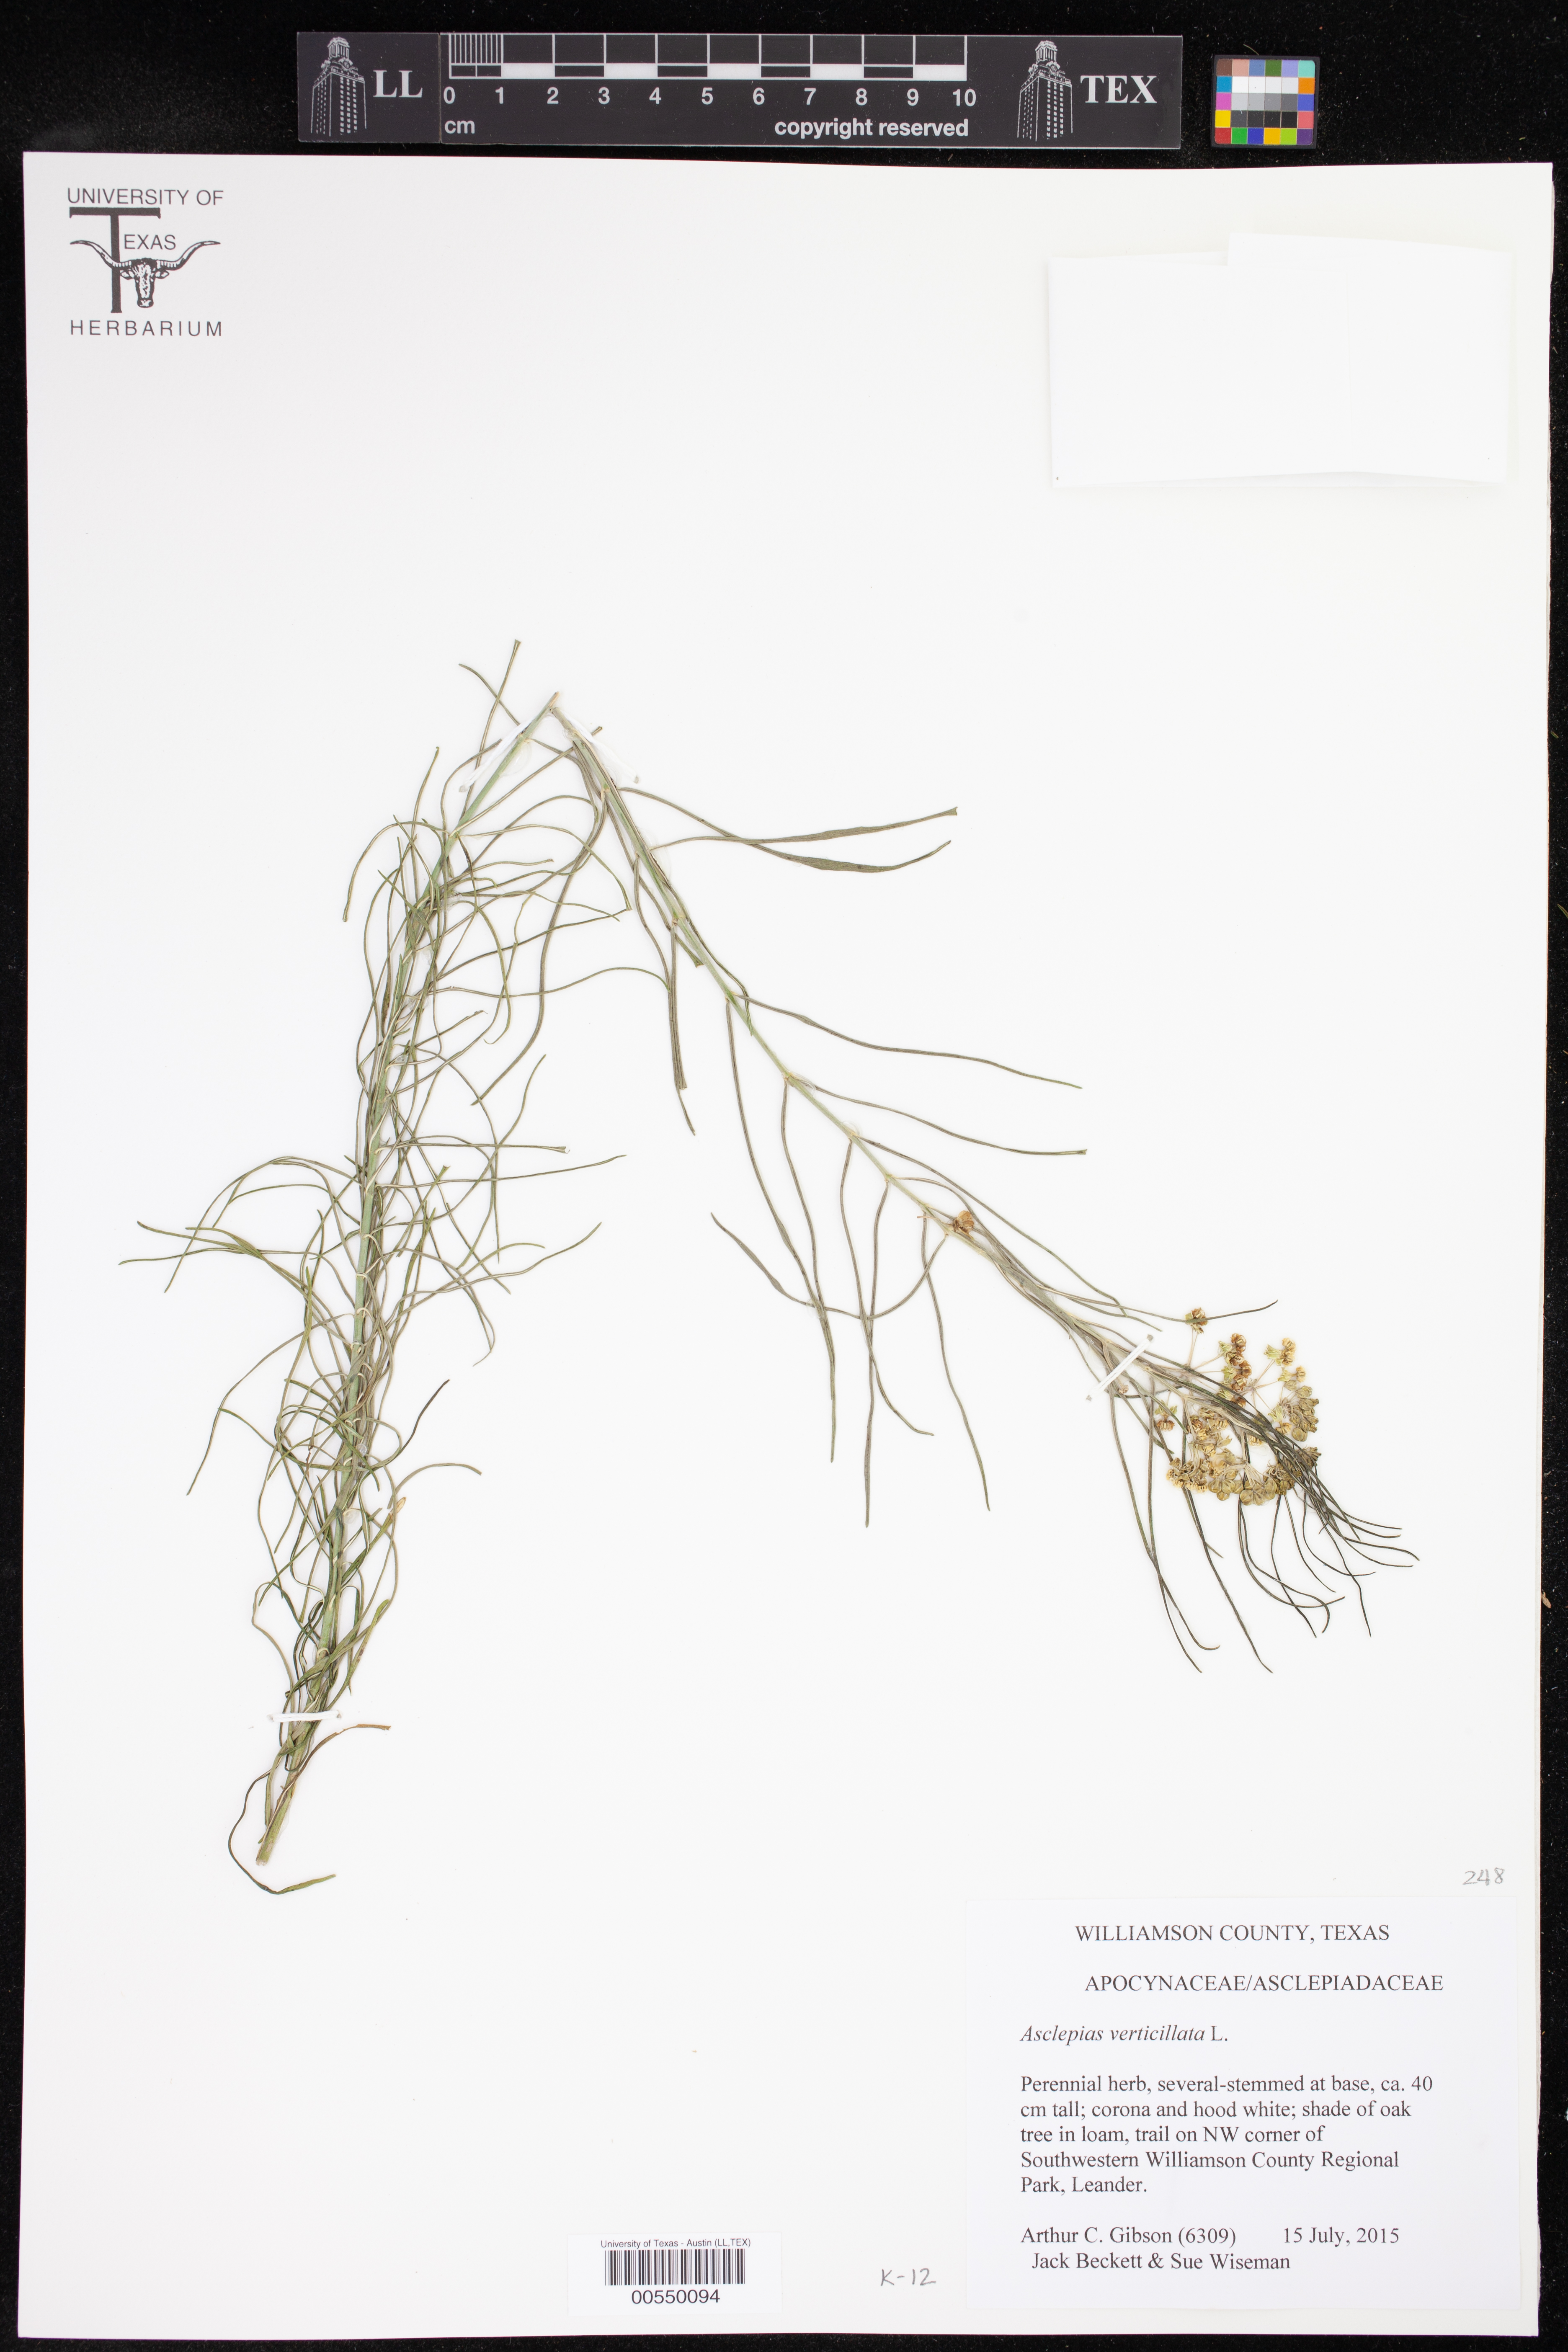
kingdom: Plantae
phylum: Tracheophyta
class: Magnoliopsida
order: Gentianales
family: Apocynaceae
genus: Asclepias
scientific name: Asclepias verticillata
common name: Eastern whorled milkweed
